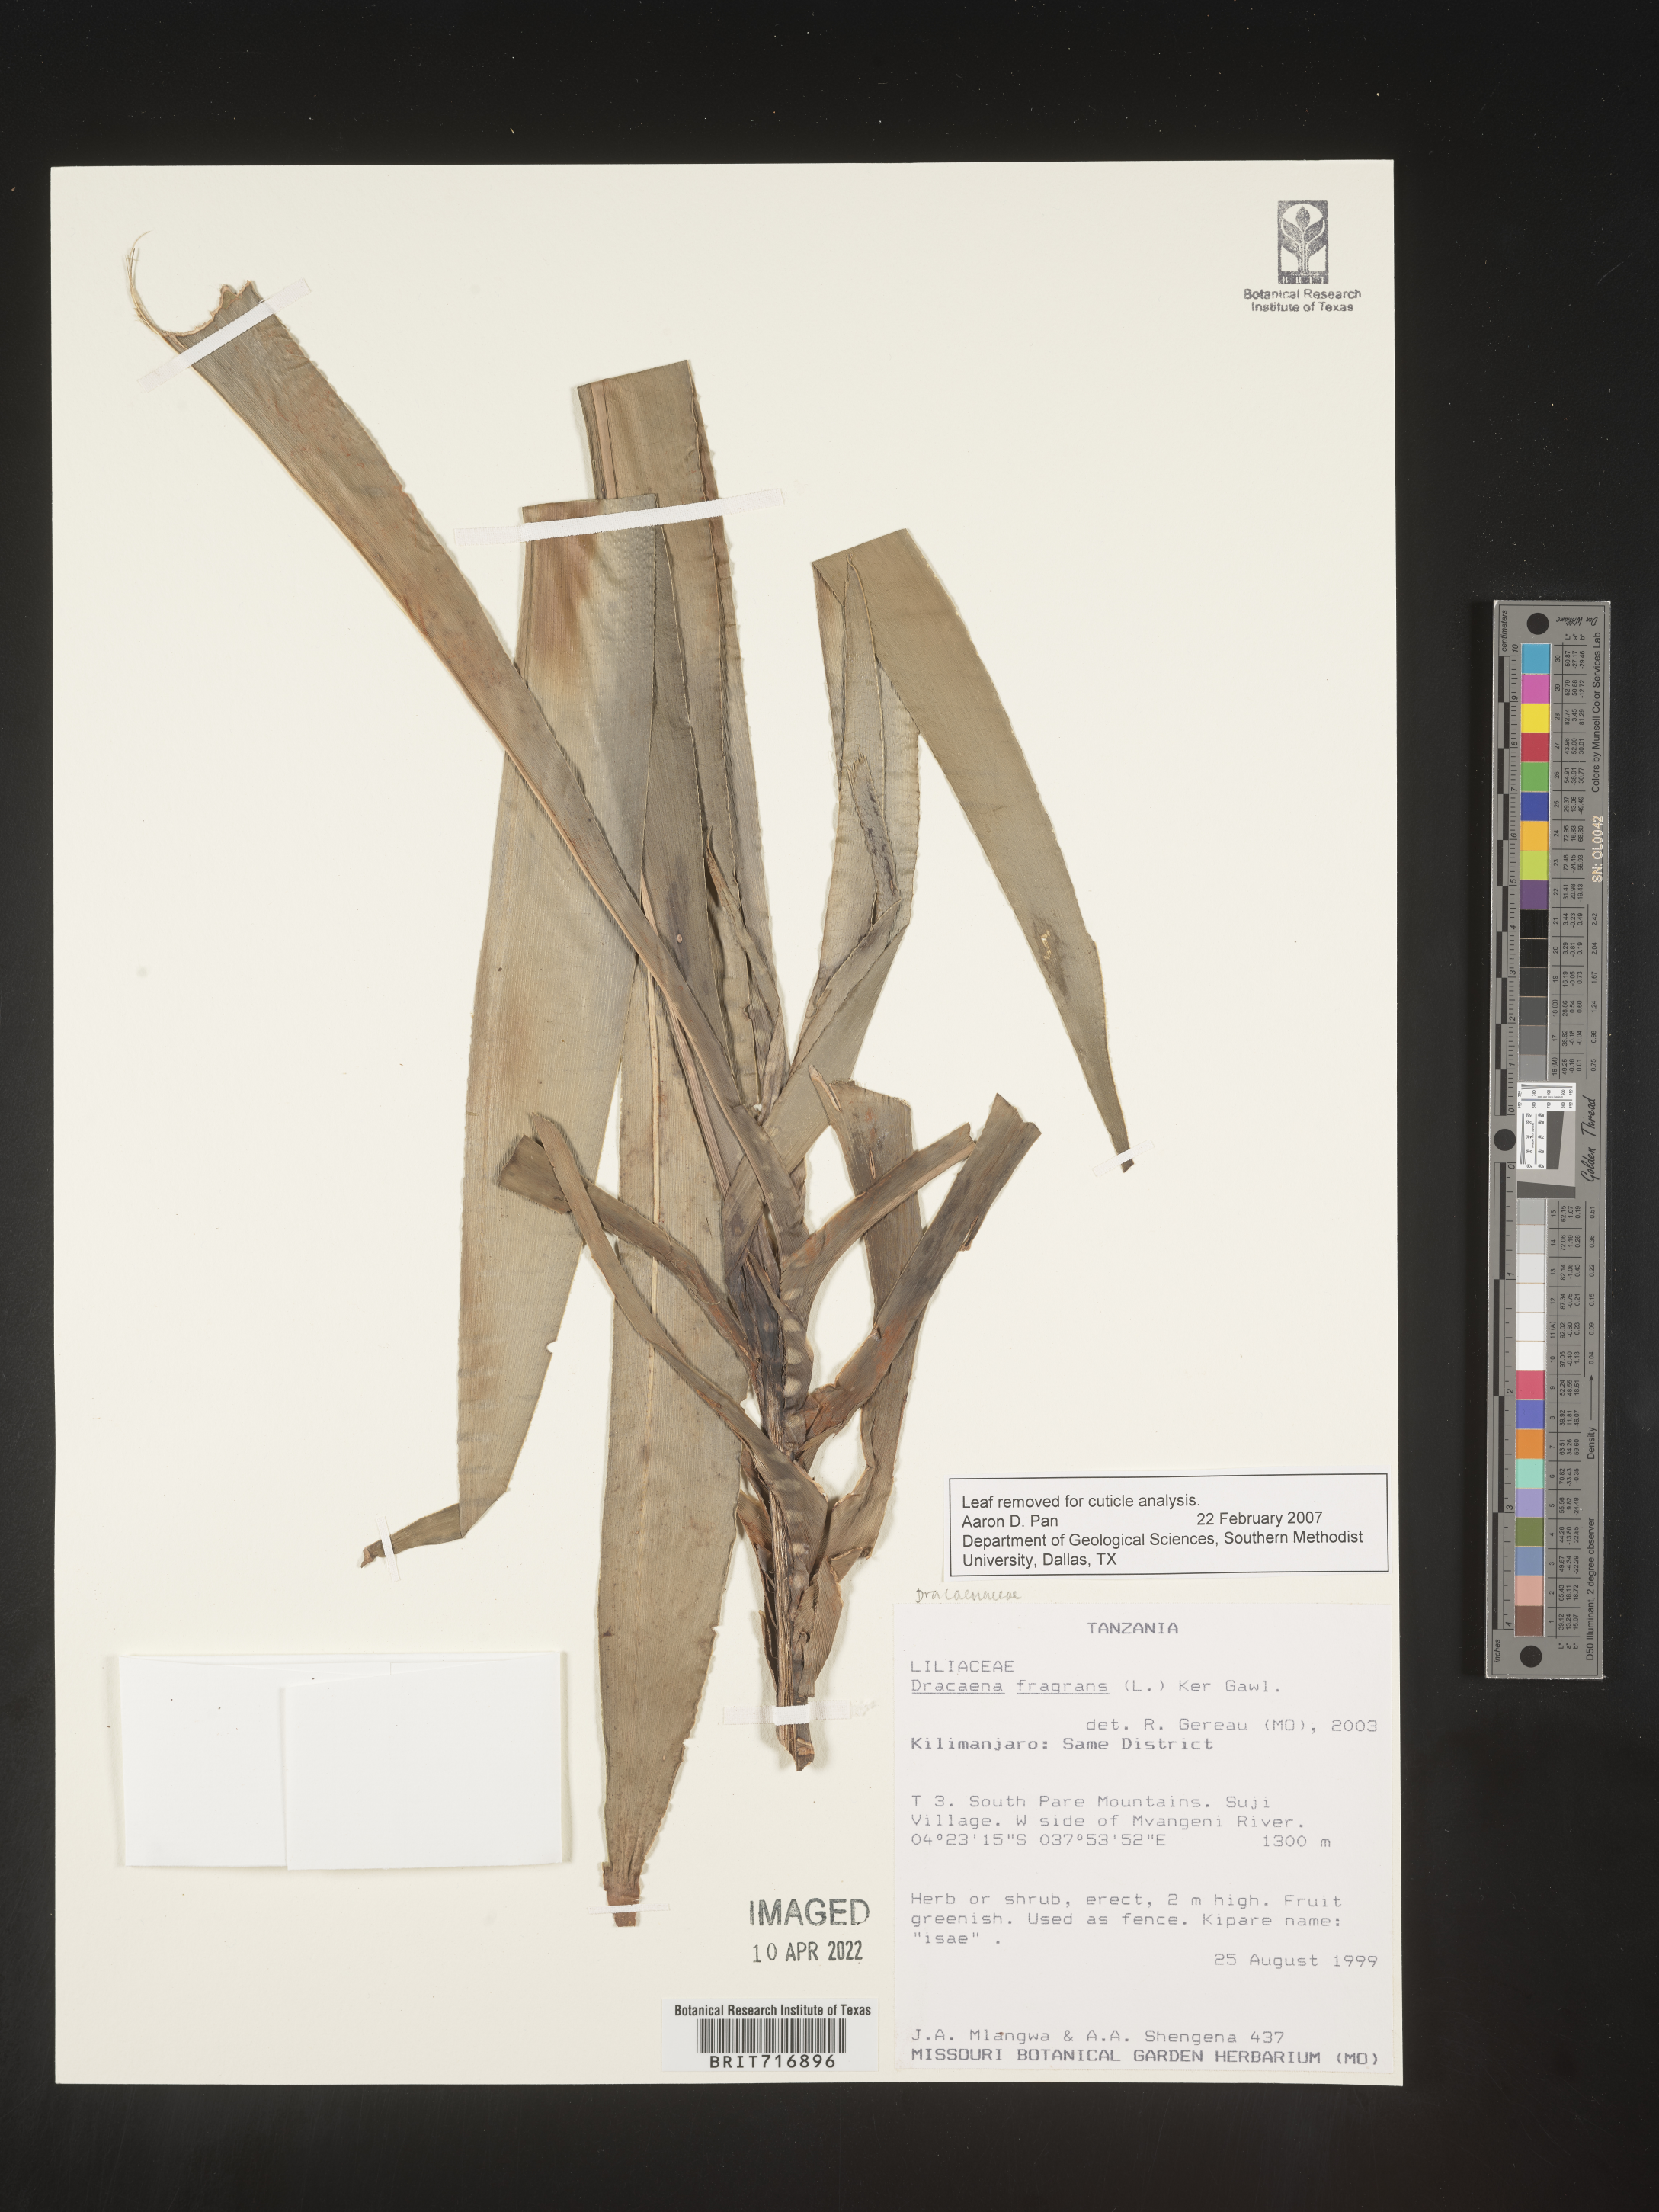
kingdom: Plantae
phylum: Tracheophyta
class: Liliopsida
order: Asparagales
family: Asparagaceae
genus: Dracaena
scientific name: Dracaena
